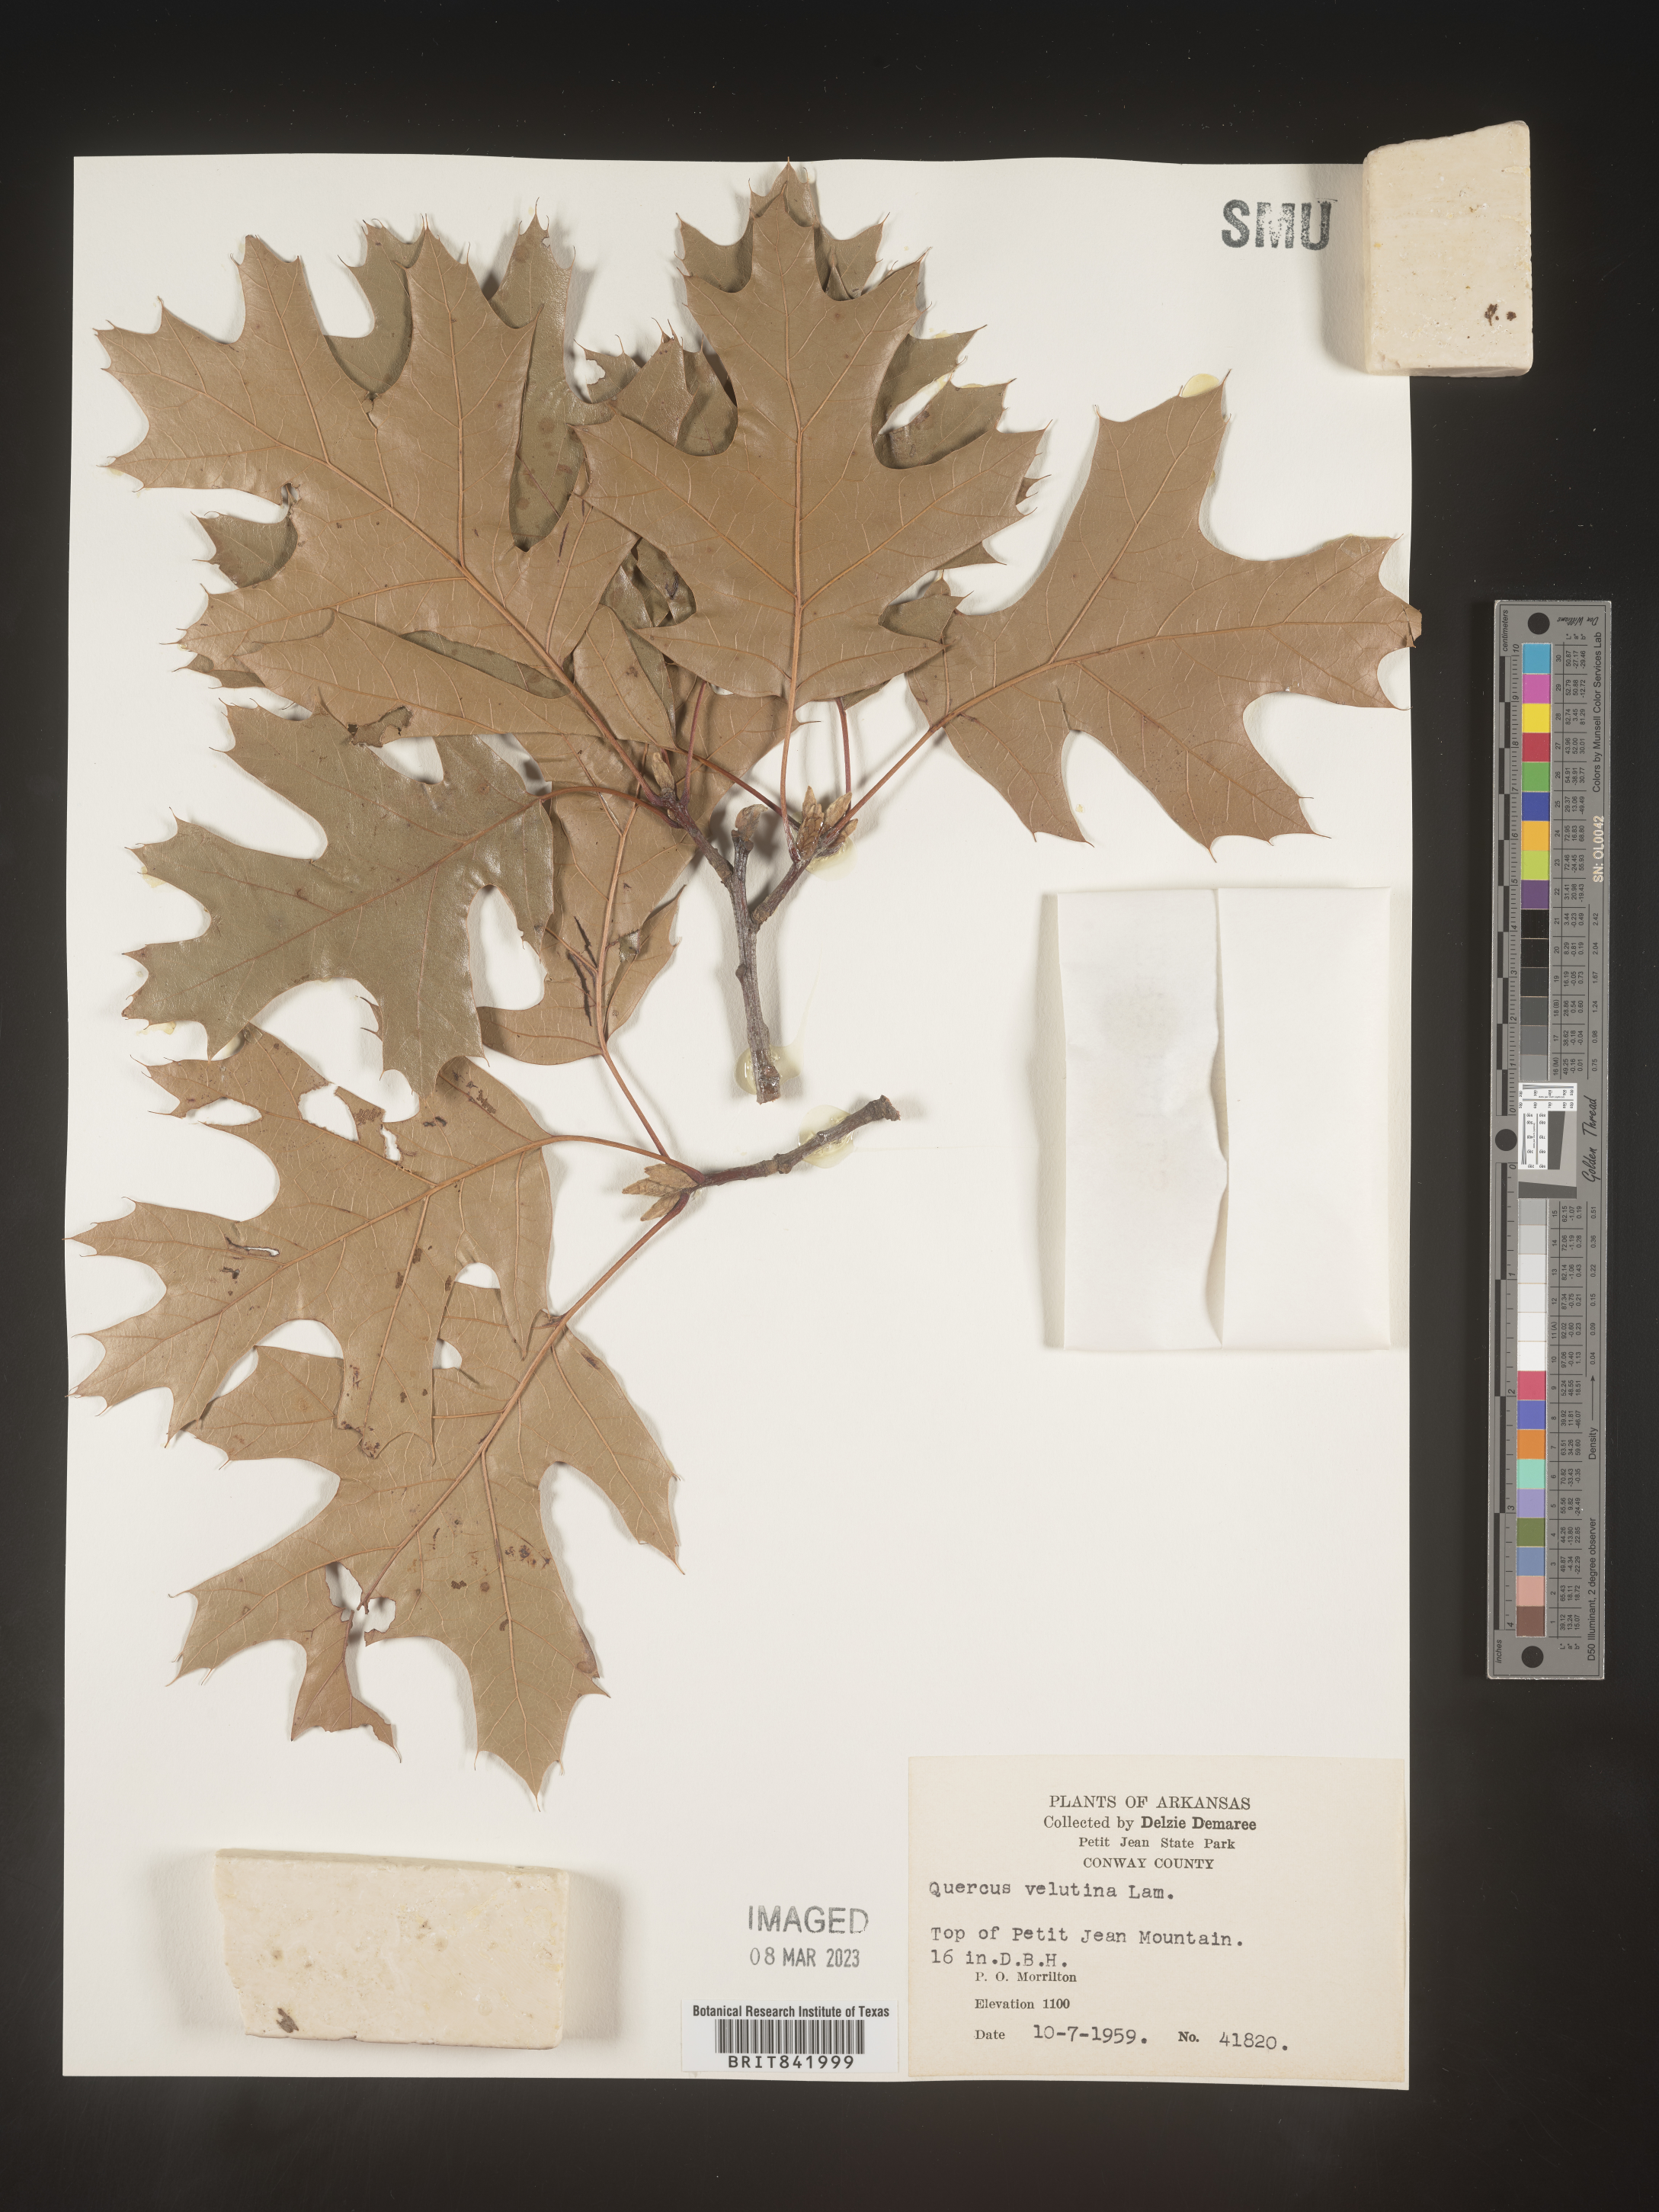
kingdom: Plantae
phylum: Tracheophyta
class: Magnoliopsida
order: Fagales
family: Fagaceae
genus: Quercus
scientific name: Quercus velutina
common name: Black oak
